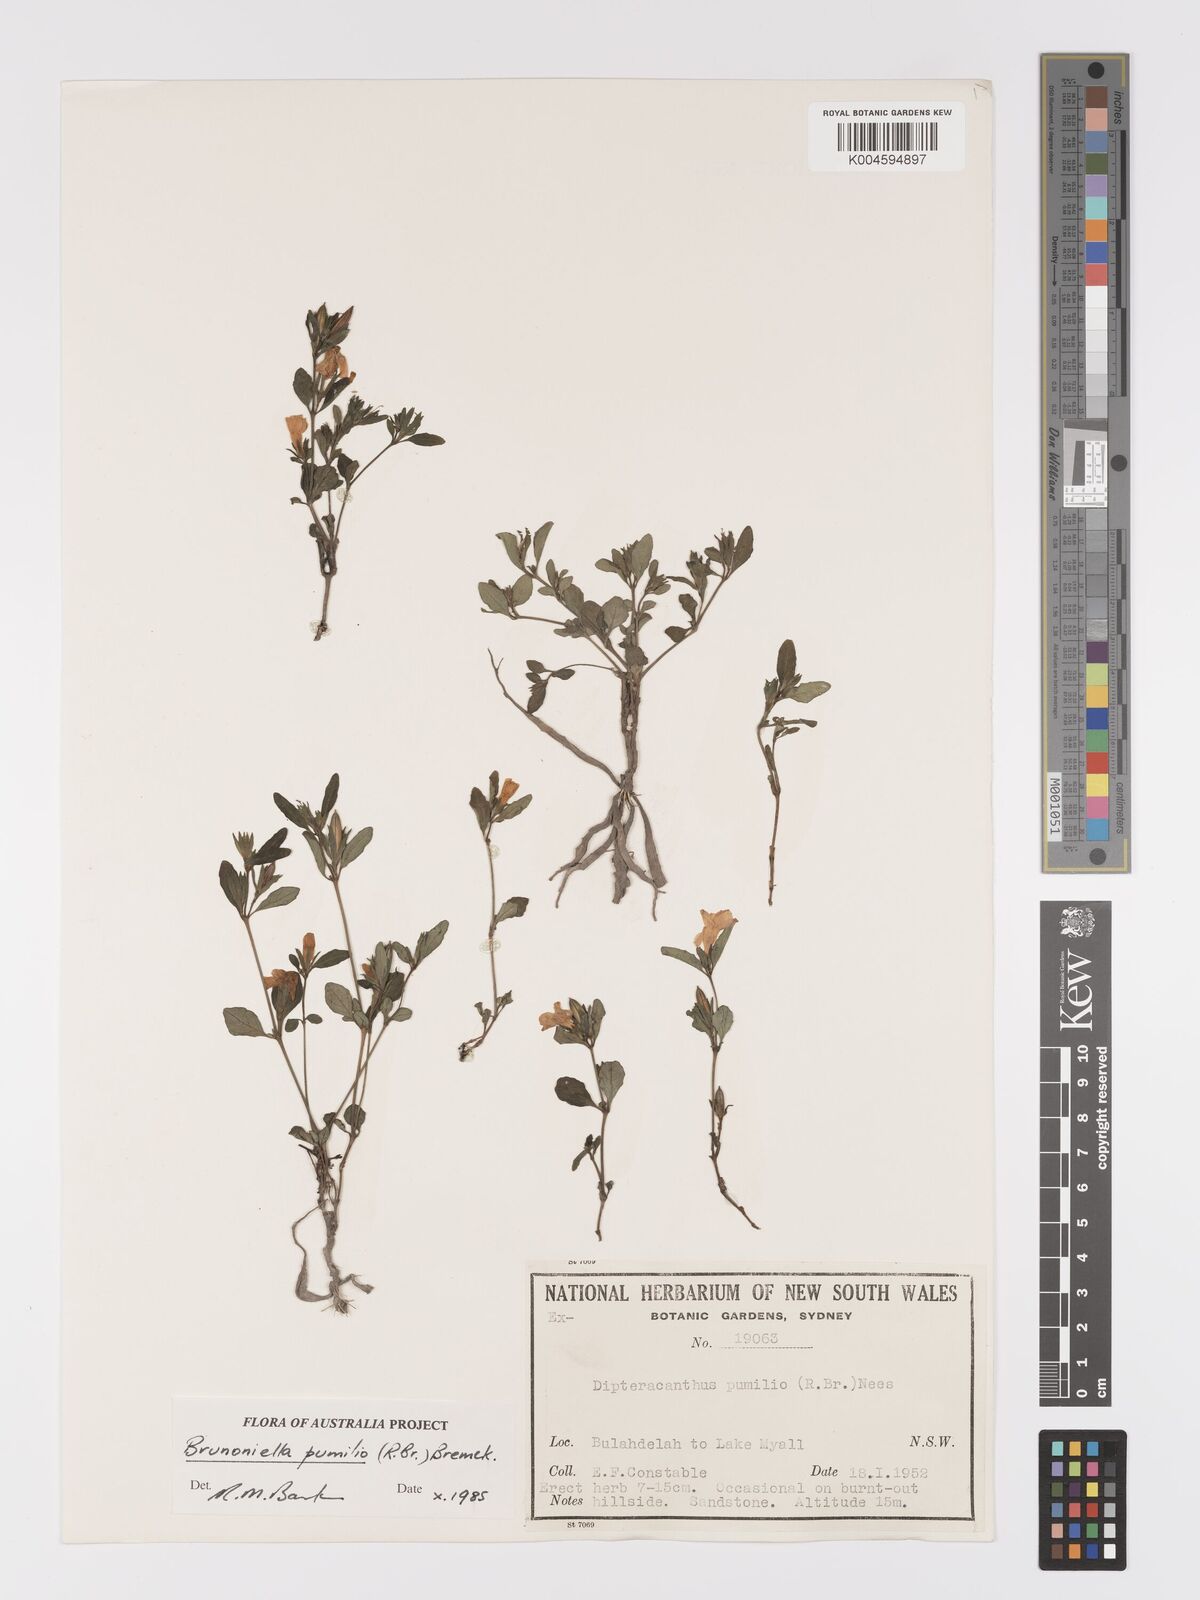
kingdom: Plantae
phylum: Tracheophyta
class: Magnoliopsida
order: Lamiales
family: Acanthaceae
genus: Brunoniella
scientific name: Brunoniella pumilio
